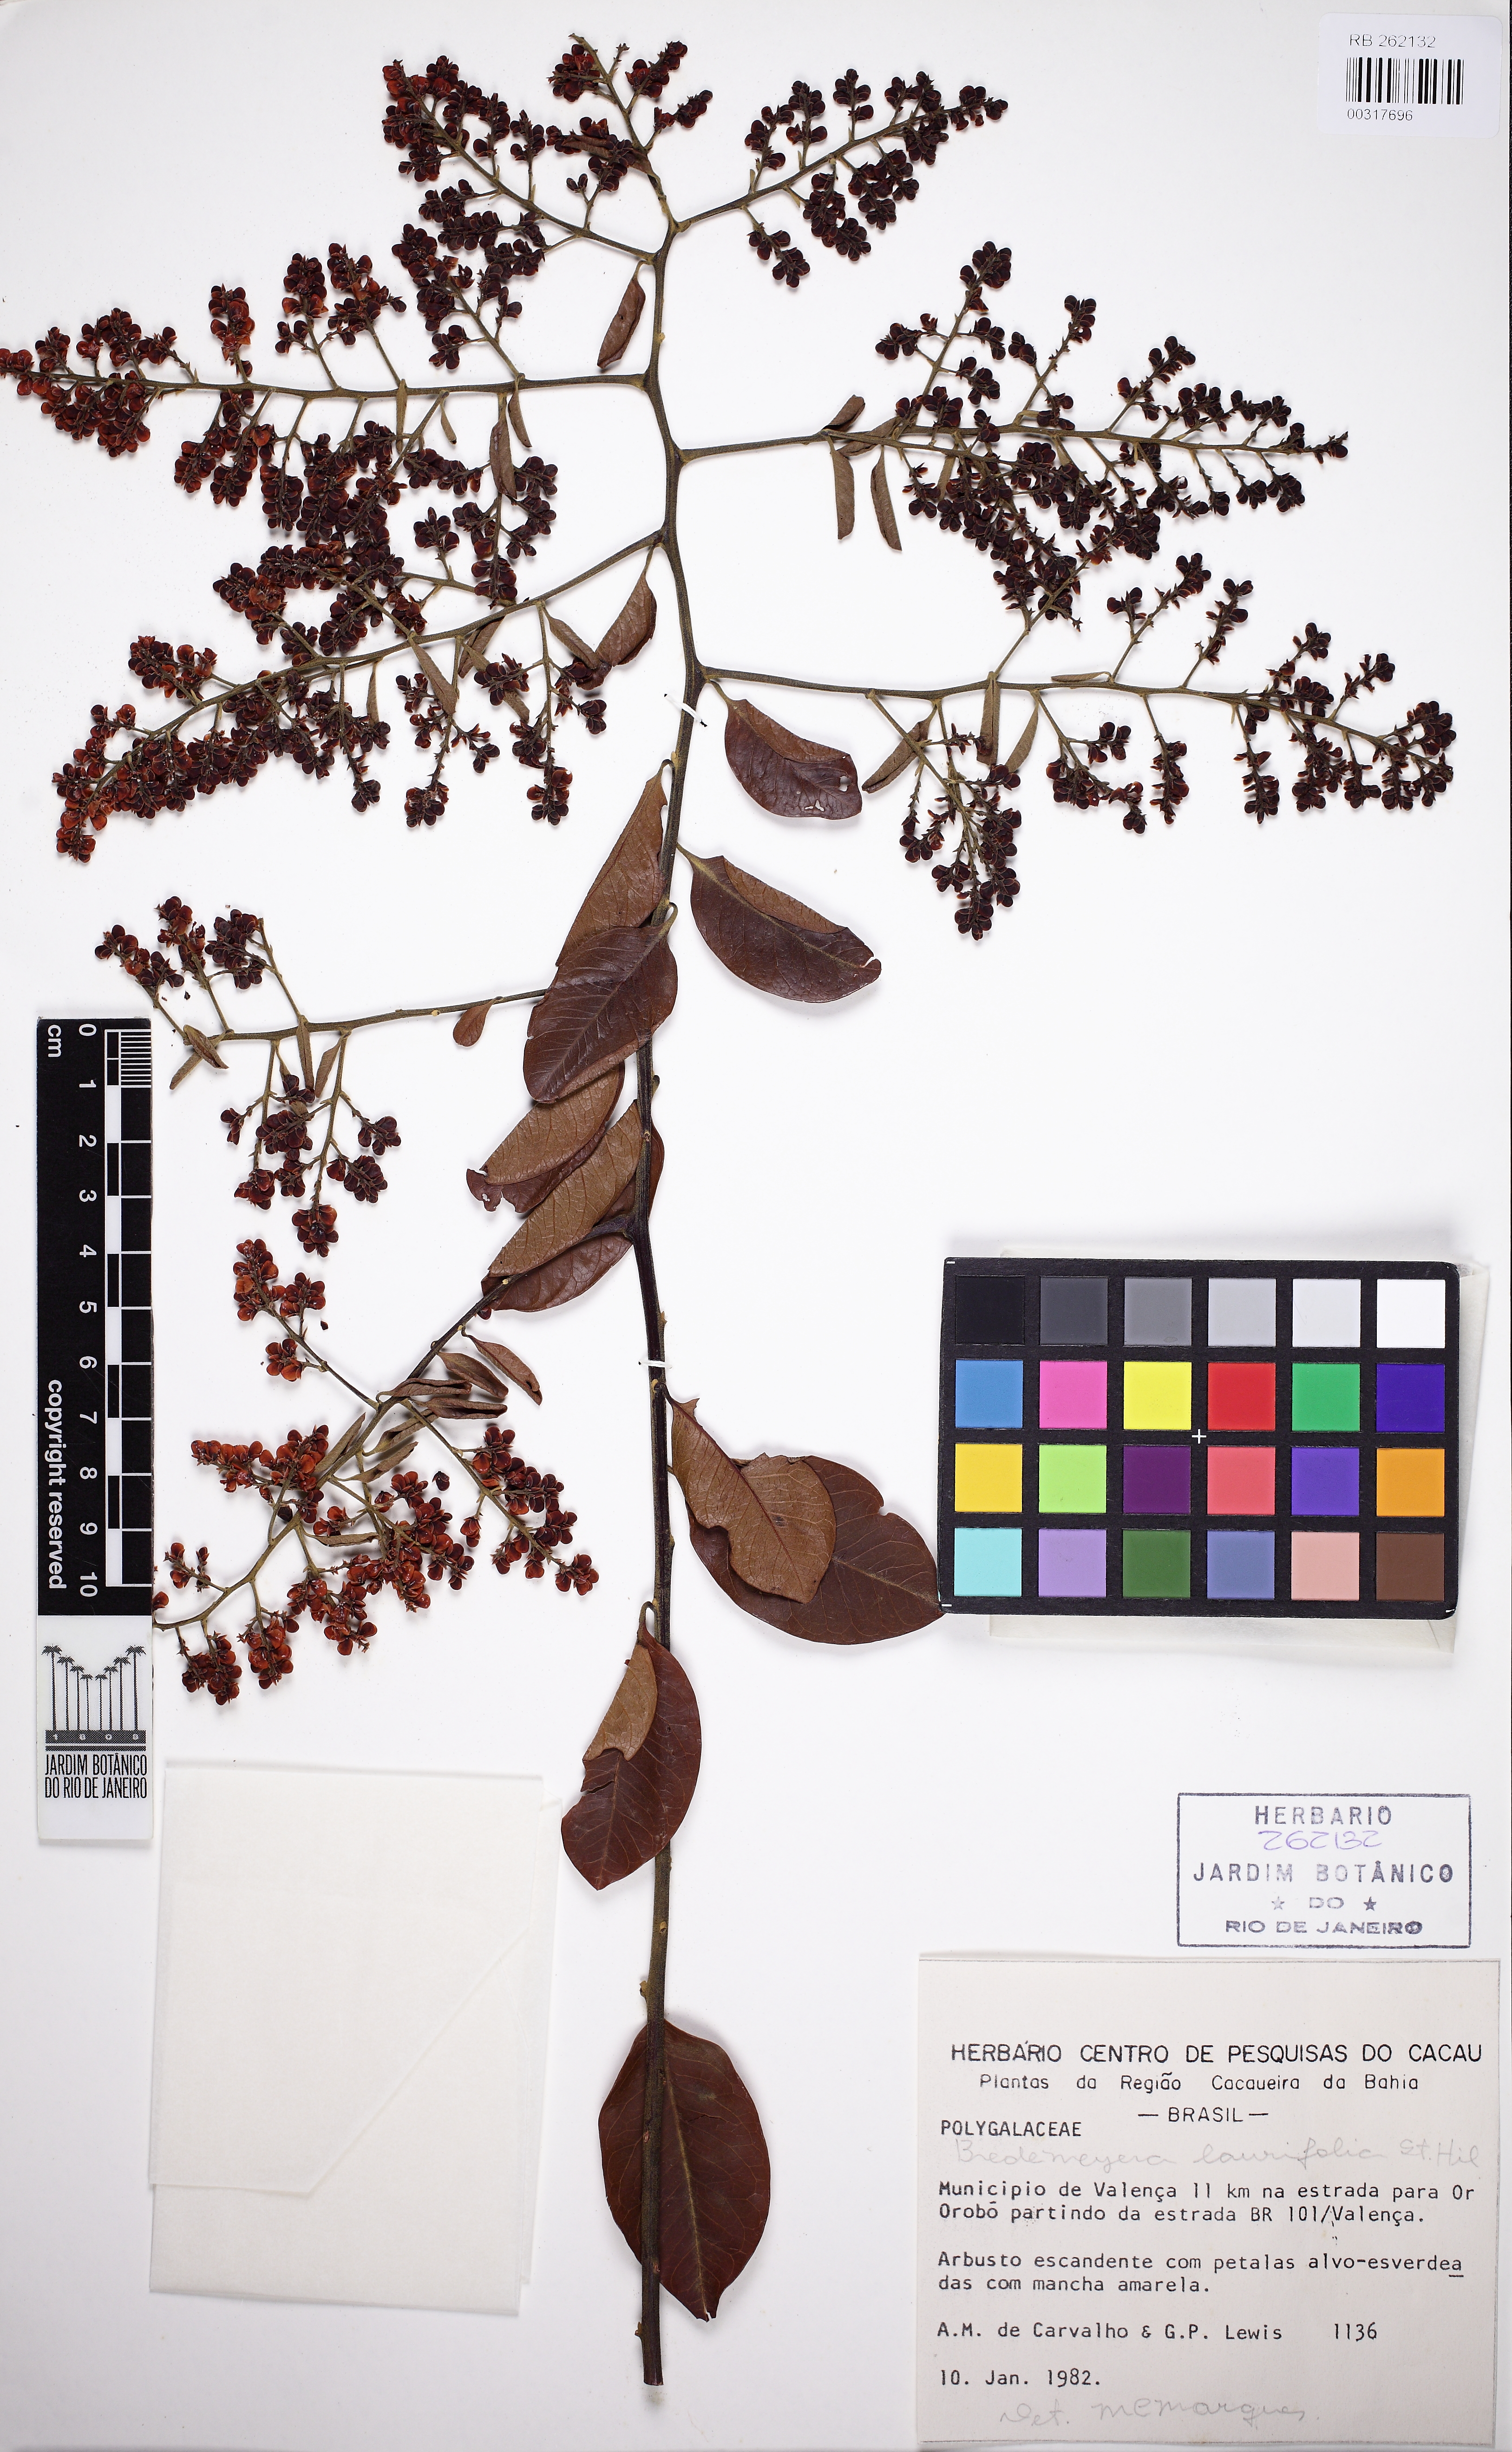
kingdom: Plantae
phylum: Tracheophyta
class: Magnoliopsida
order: Fabales
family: Polygalaceae
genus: Bredemeyera
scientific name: Bredemeyera laurifolia
